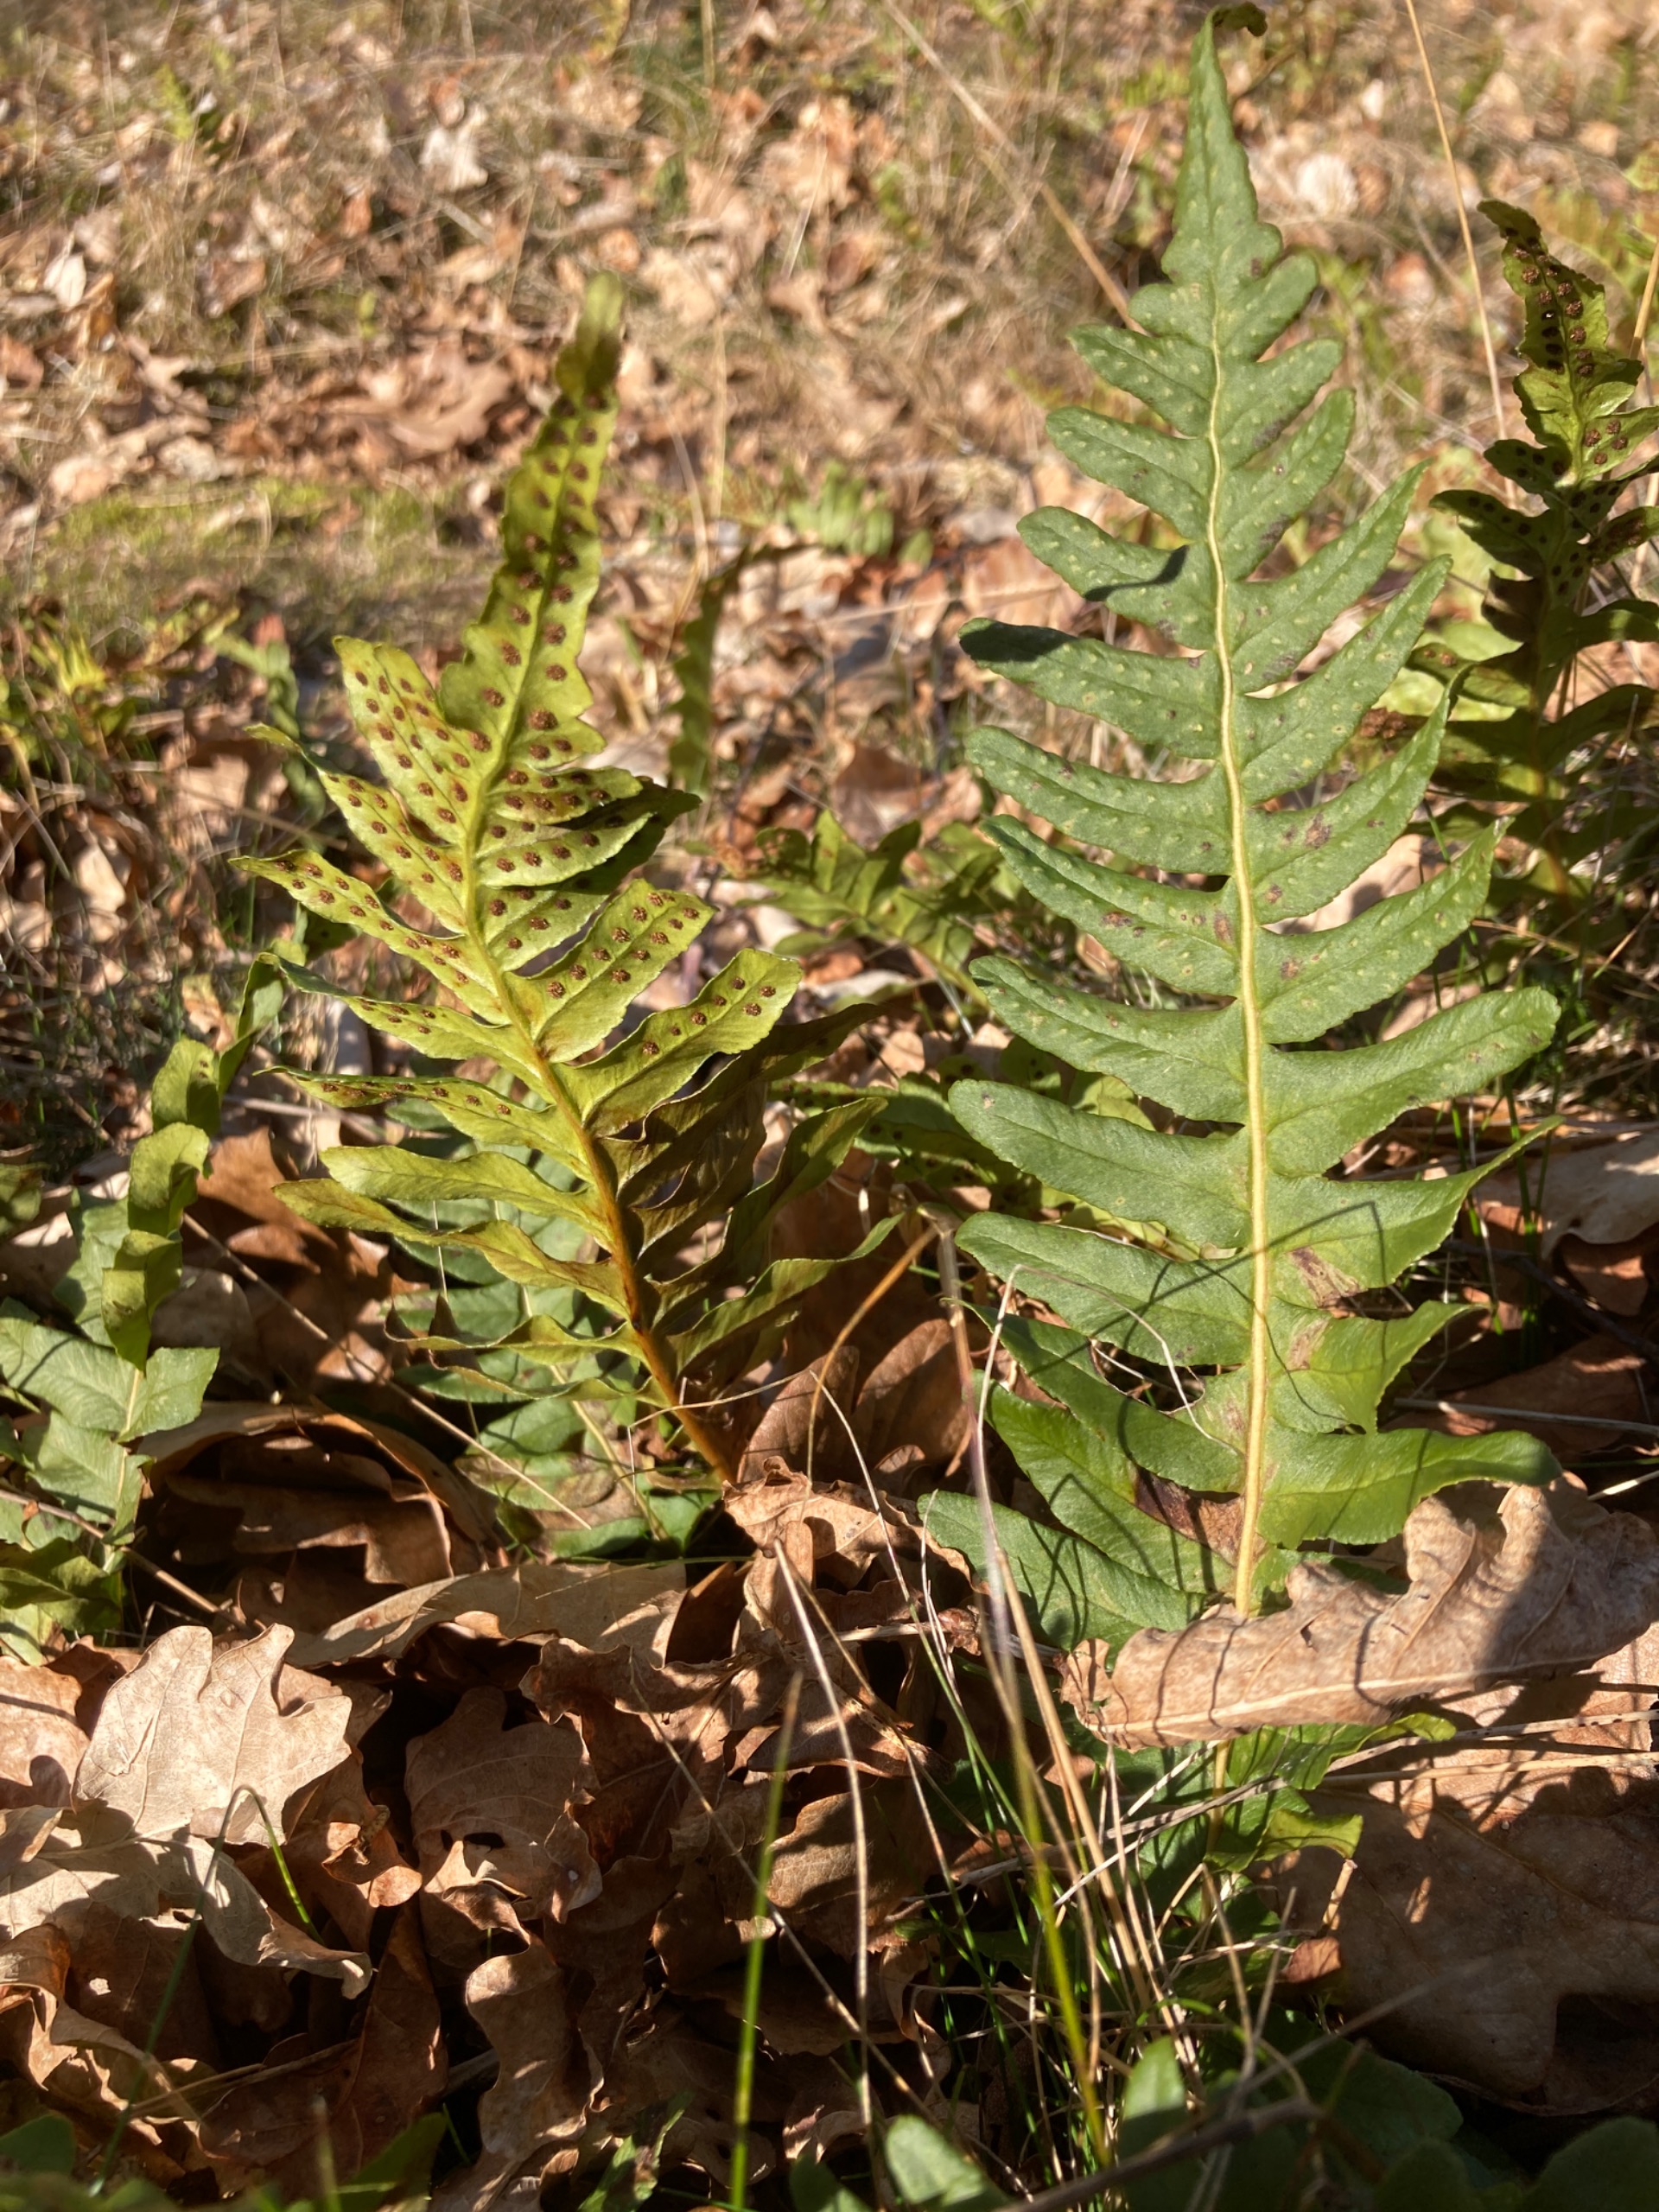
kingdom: Plantae
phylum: Tracheophyta
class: Polypodiopsida
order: Polypodiales
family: Polypodiaceae
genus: Polypodium
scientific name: Polypodium vulgare
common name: Almindelig engelsød
